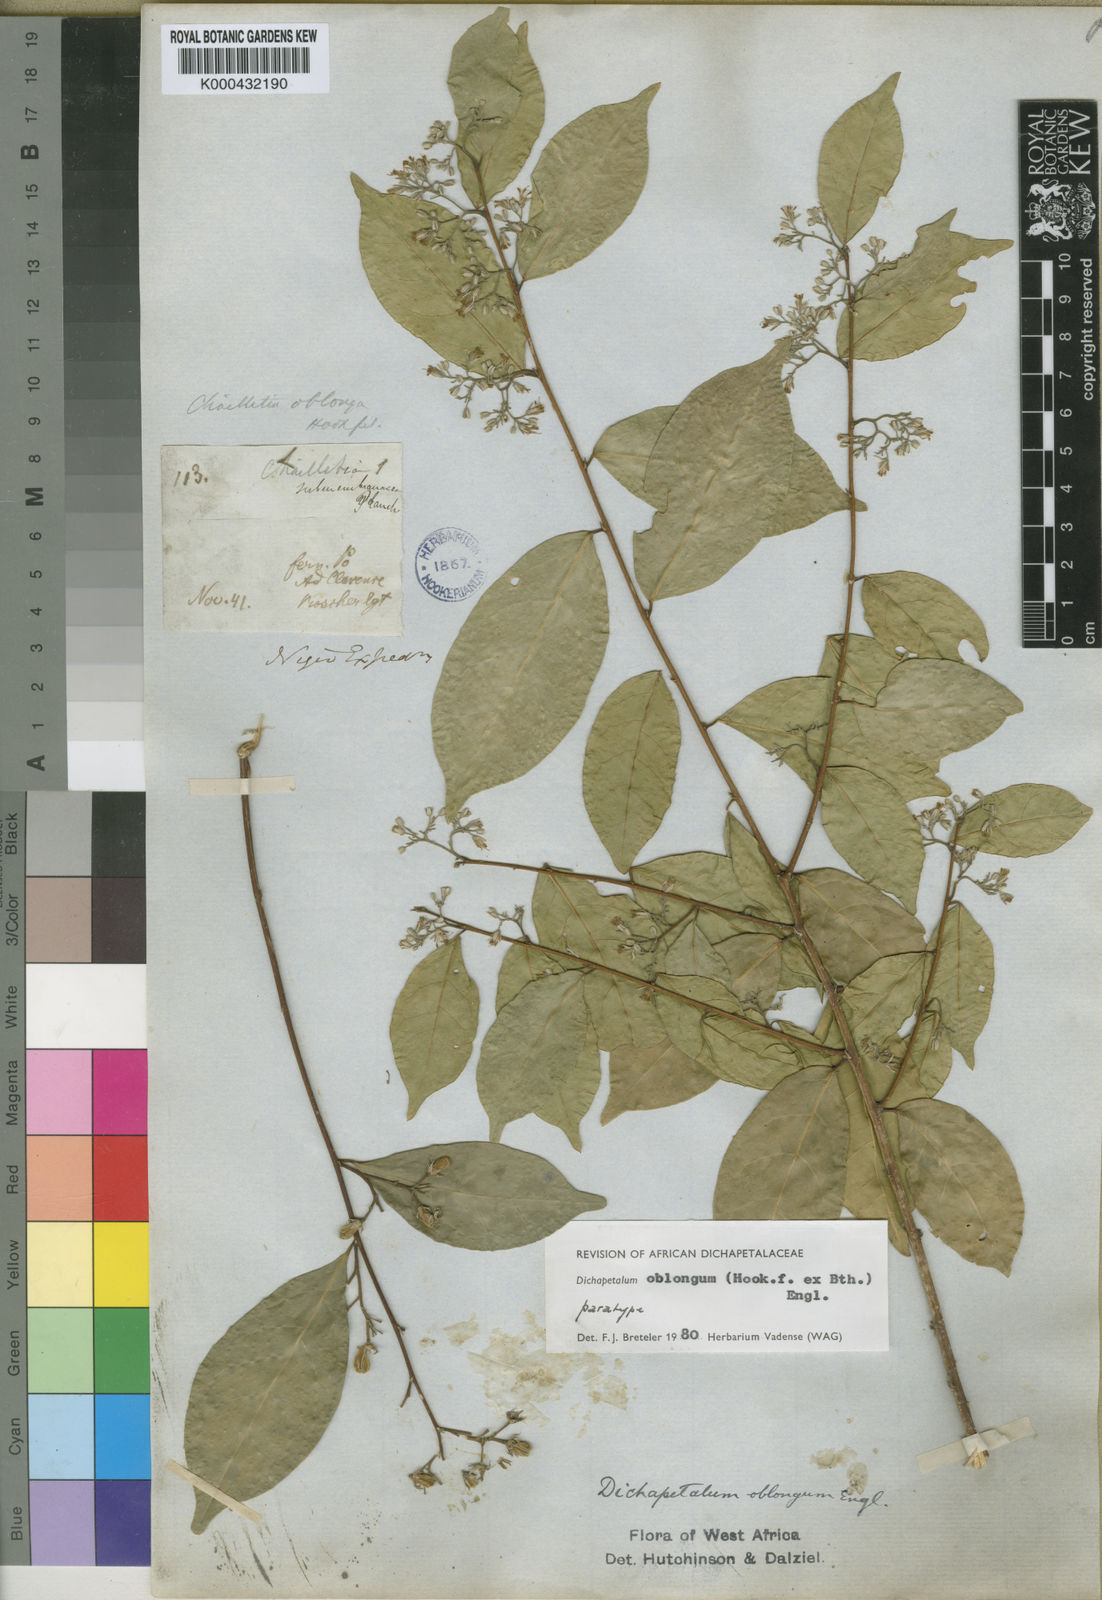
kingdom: Plantae
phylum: Tracheophyta
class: Magnoliopsida
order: Malpighiales
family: Dichapetalaceae
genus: Dichapetalum
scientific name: Dichapetalum oblongum
